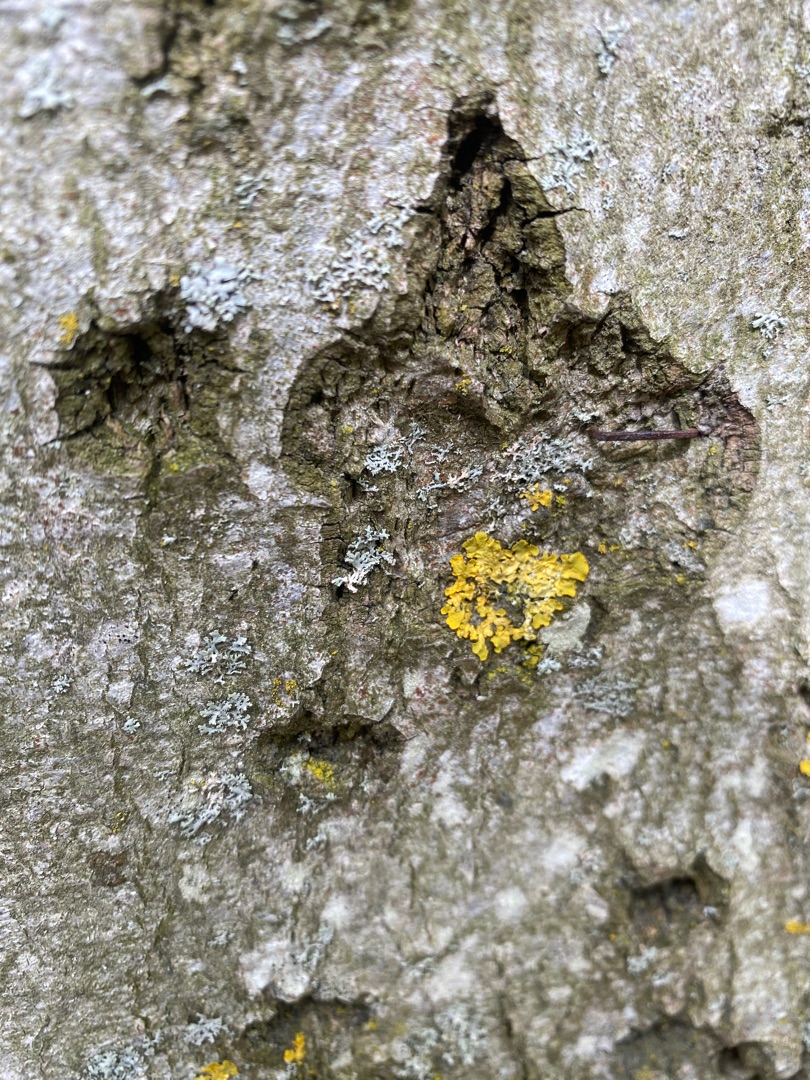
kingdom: Fungi
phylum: Ascomycota
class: Lecanoromycetes
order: Teloschistales
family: Teloschistaceae
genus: Xanthoria
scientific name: Xanthoria parietina
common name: Almindelig væggelav
